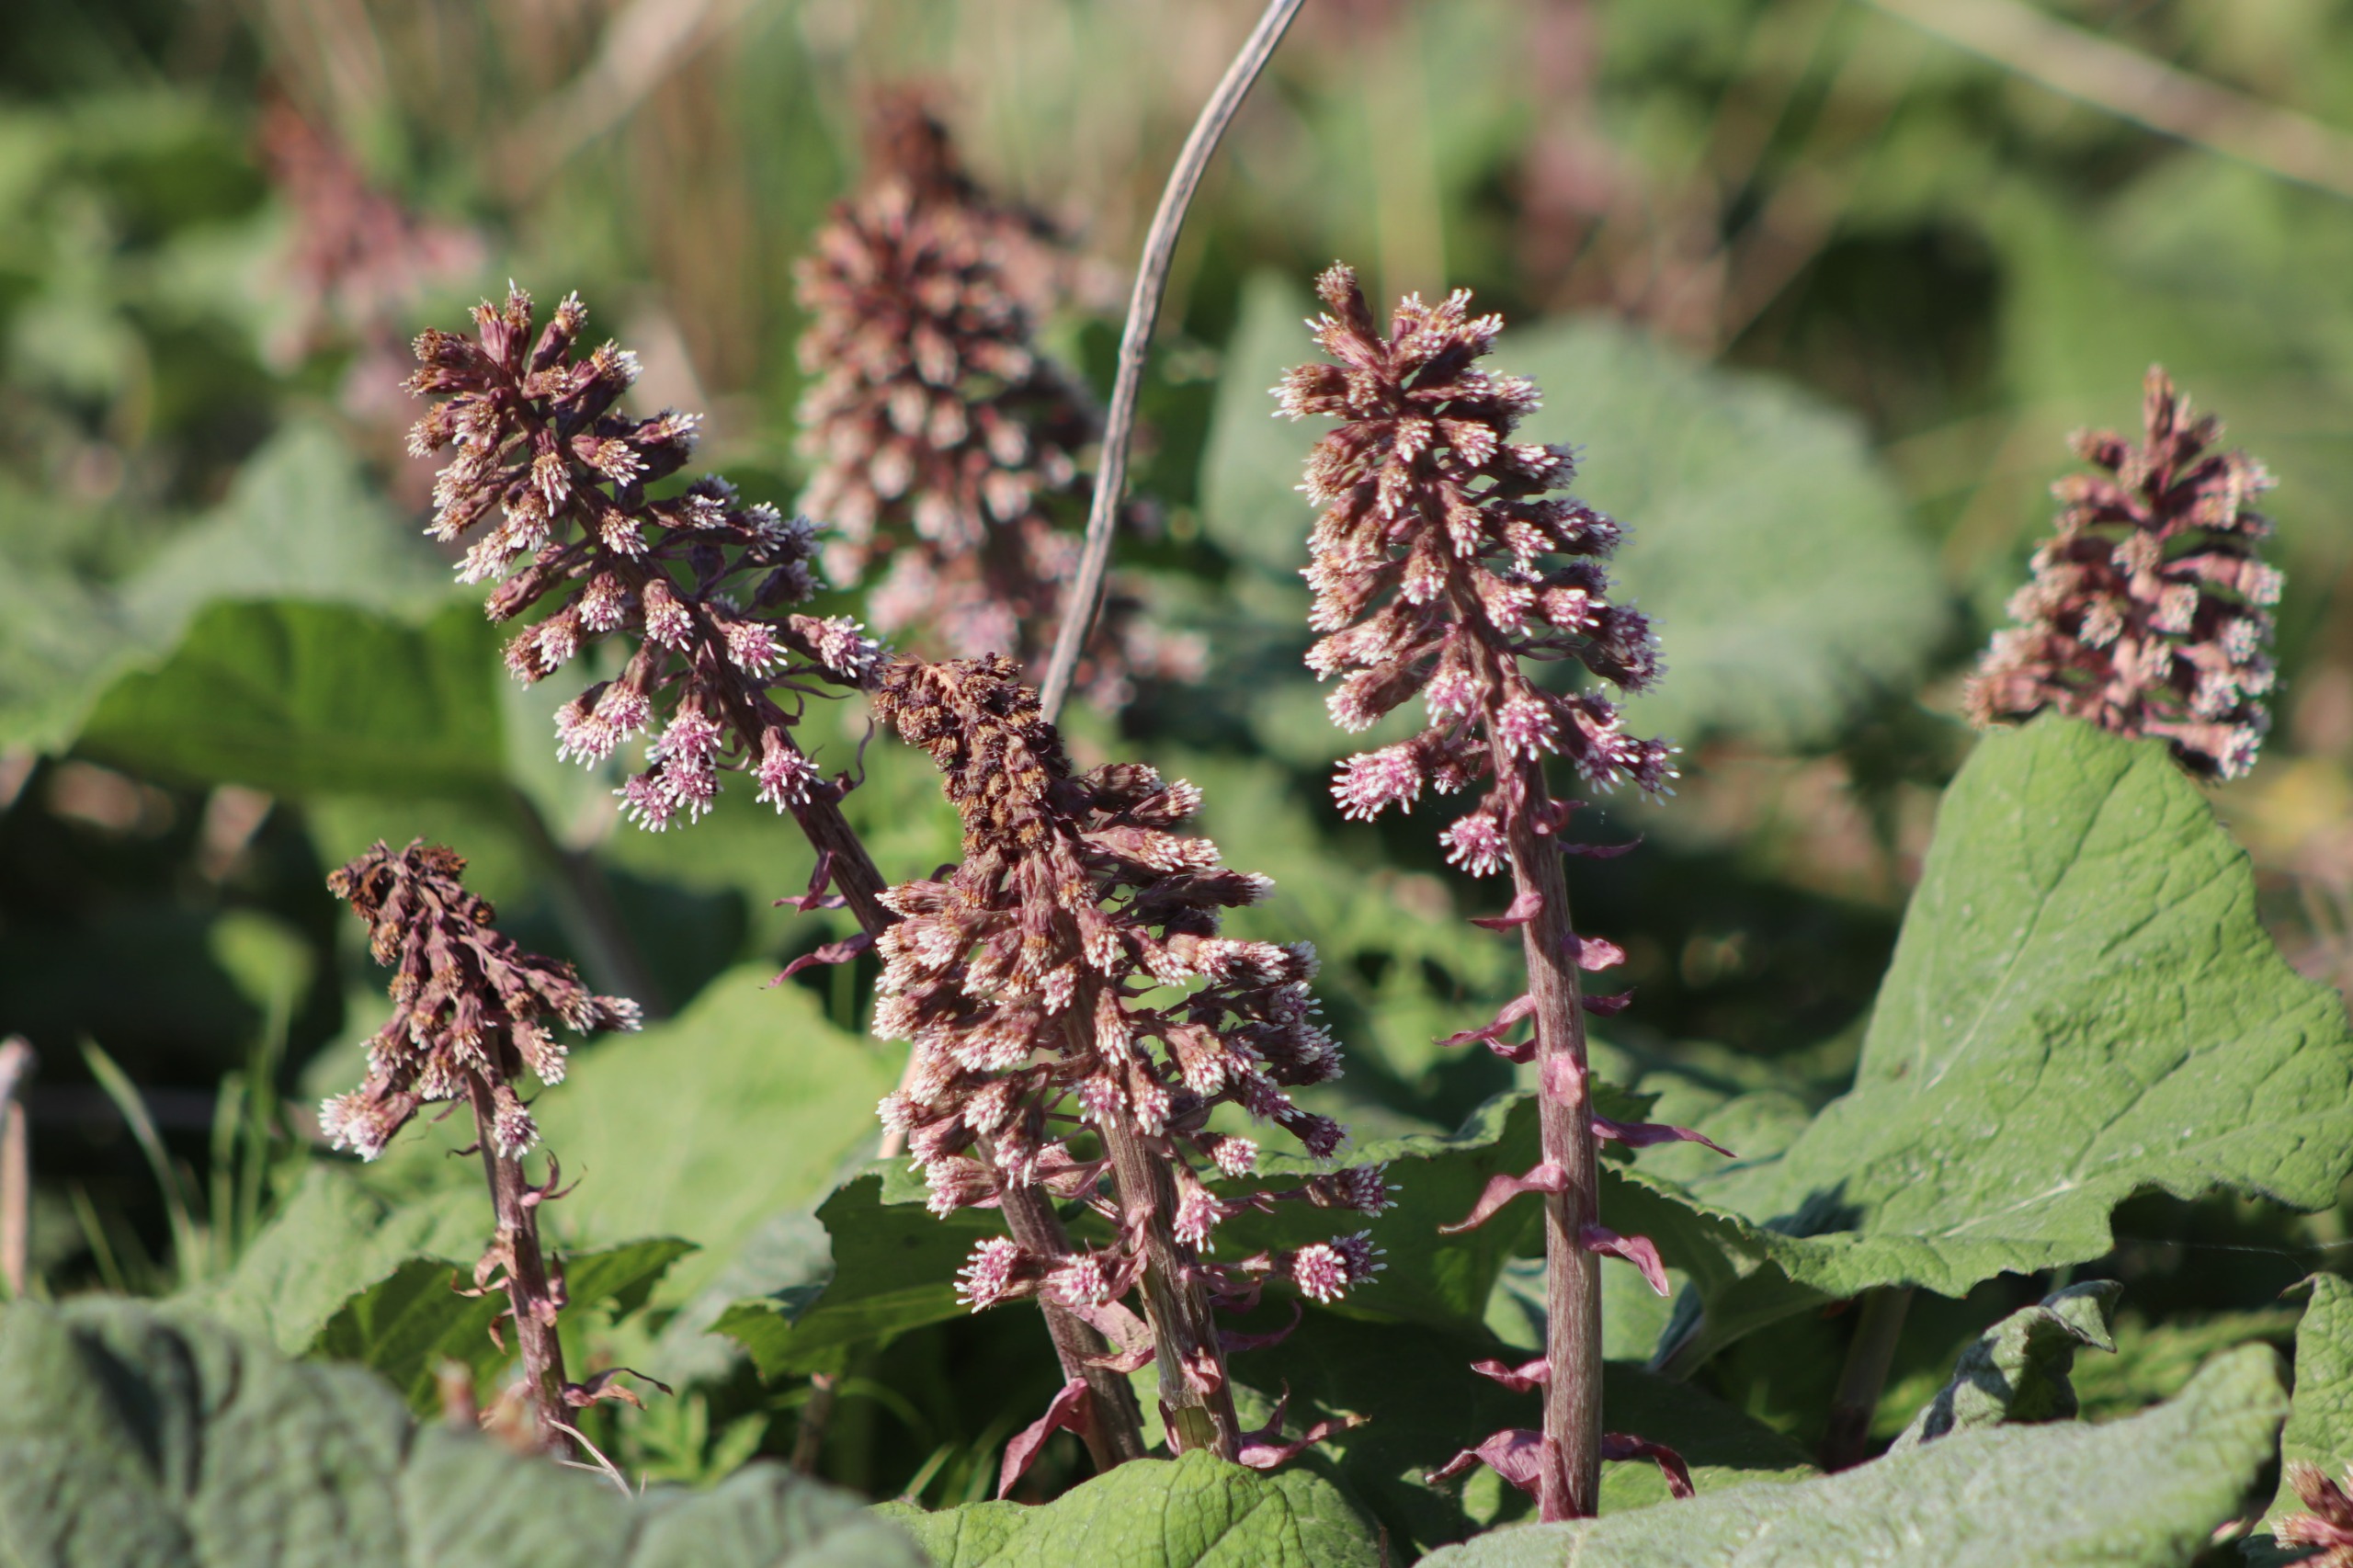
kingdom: Plantae
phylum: Tracheophyta
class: Magnoliopsida
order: Asterales
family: Asteraceae
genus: Petasites
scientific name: Petasites hybridus
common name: Rød hestehov
